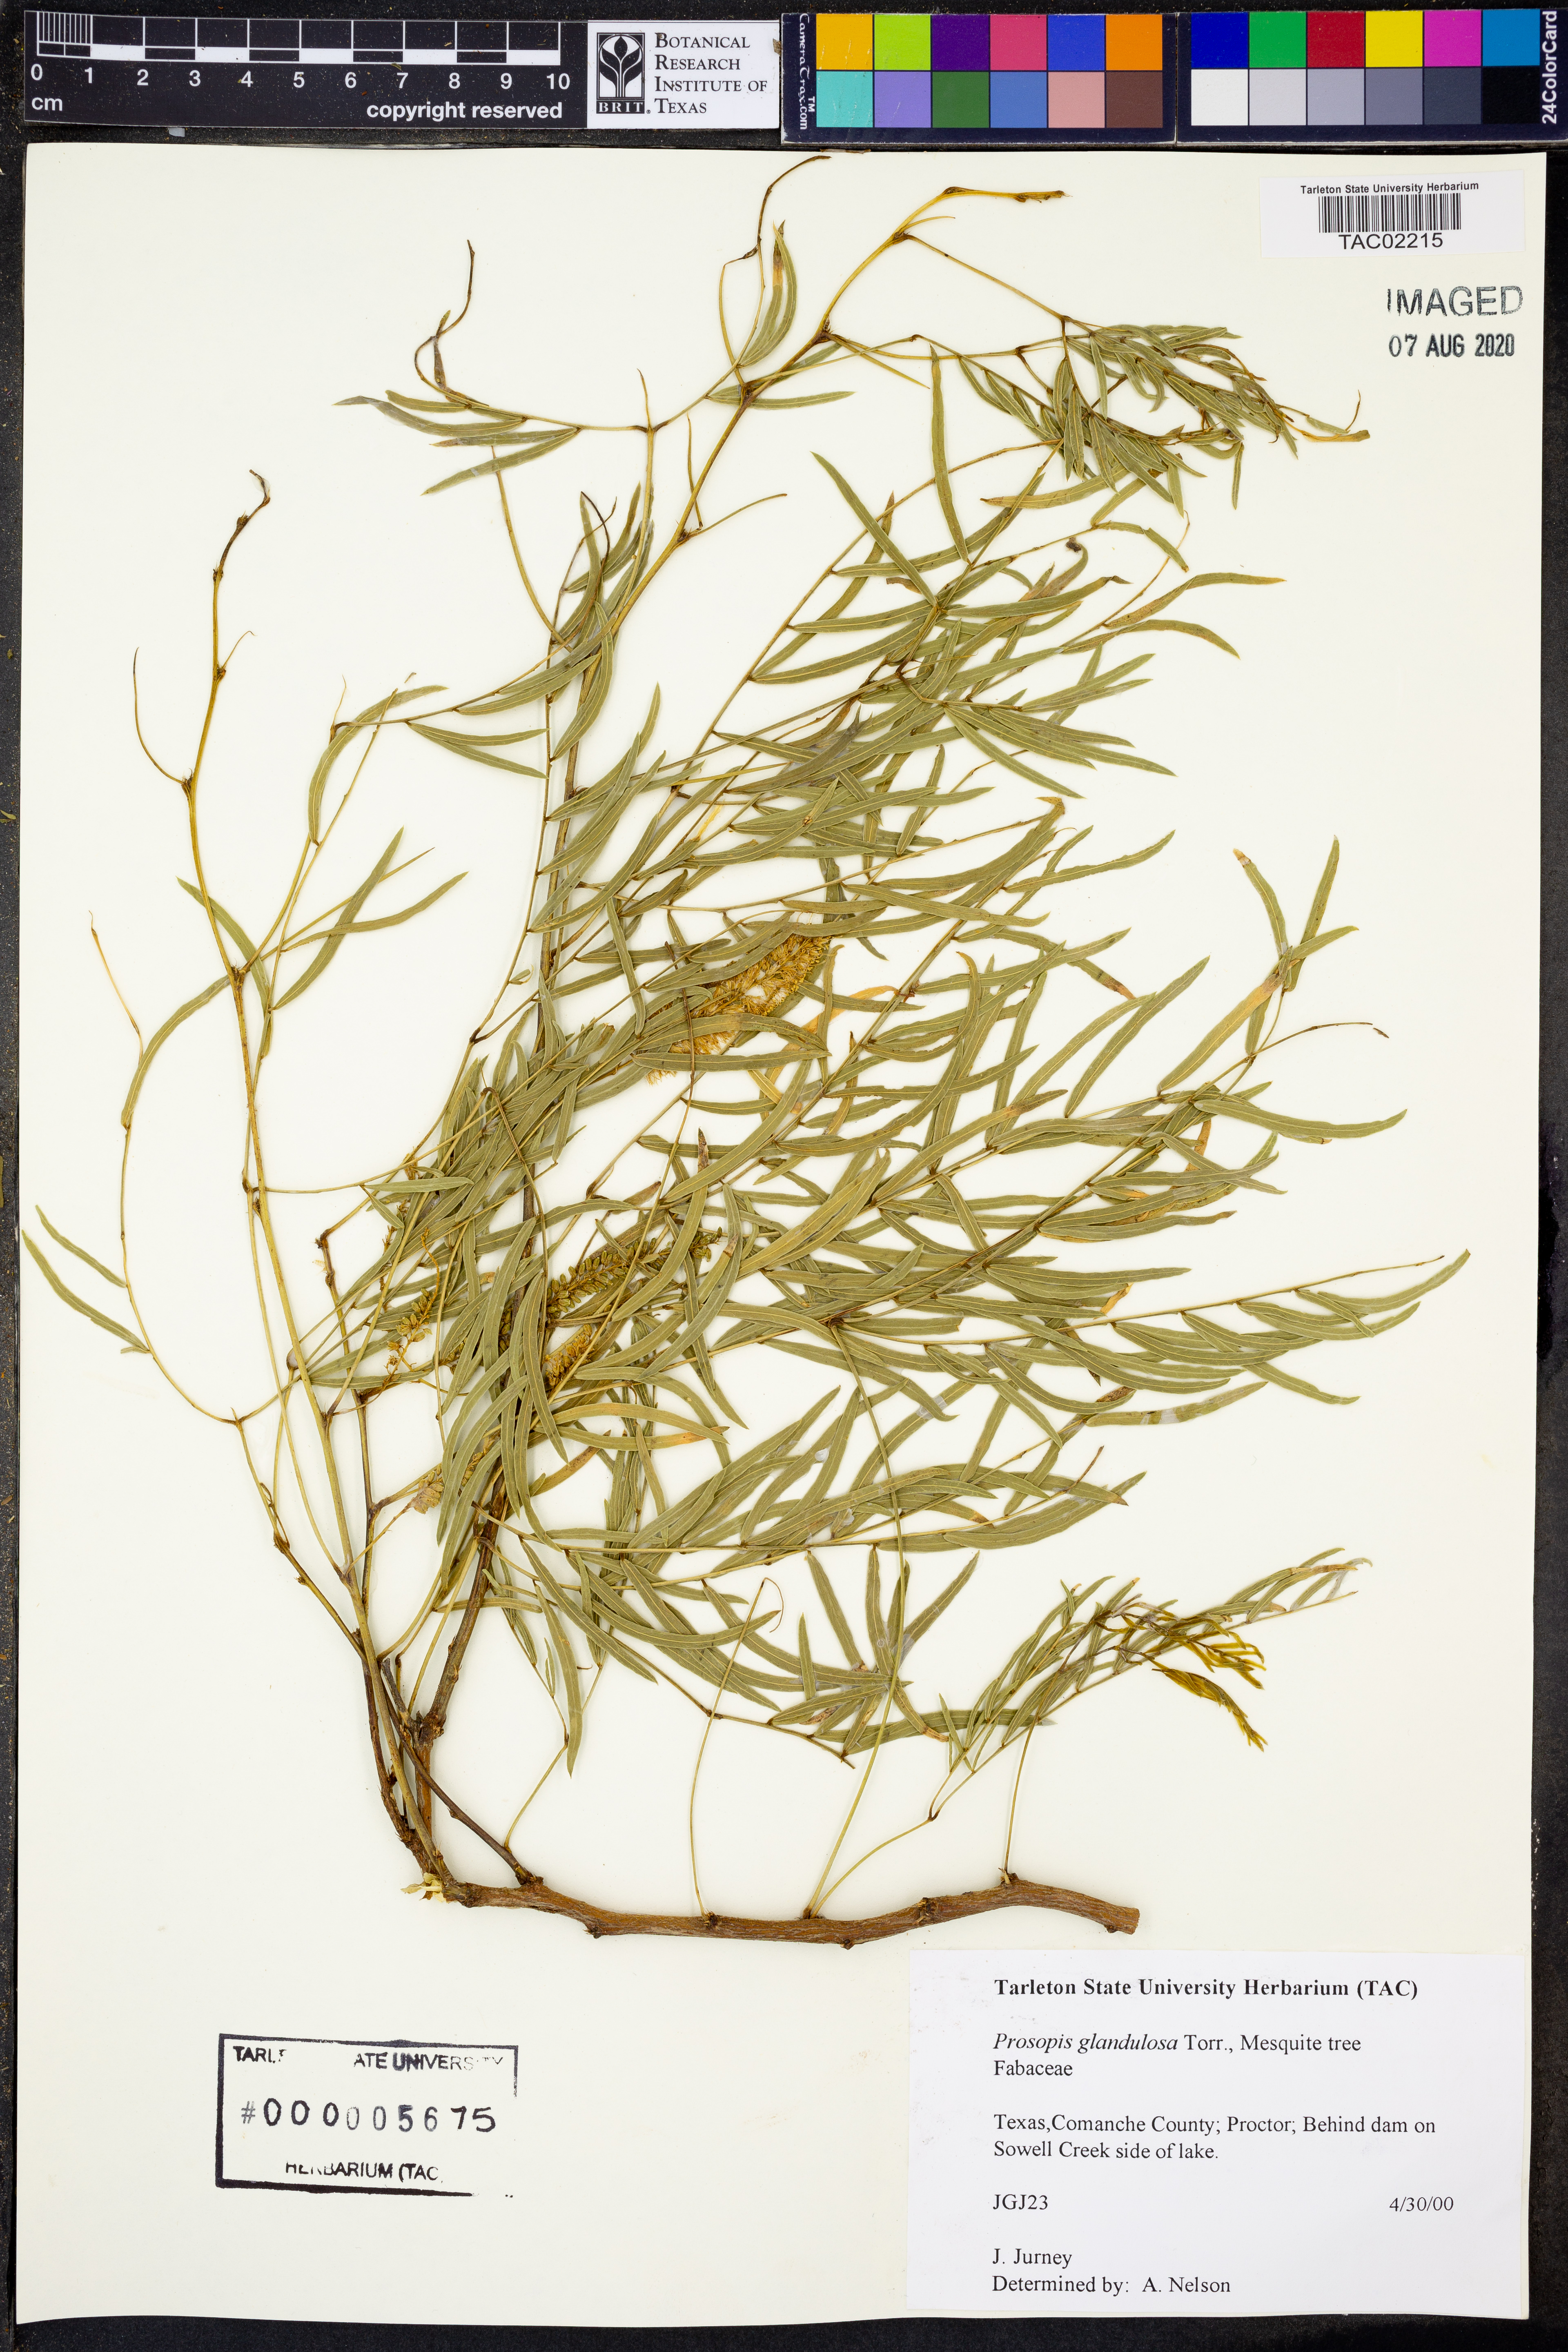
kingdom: Plantae
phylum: Tracheophyta
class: Magnoliopsida
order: Fabales
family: Fabaceae
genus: Prosopis
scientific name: Prosopis glandulosa
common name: Honey mesquite
